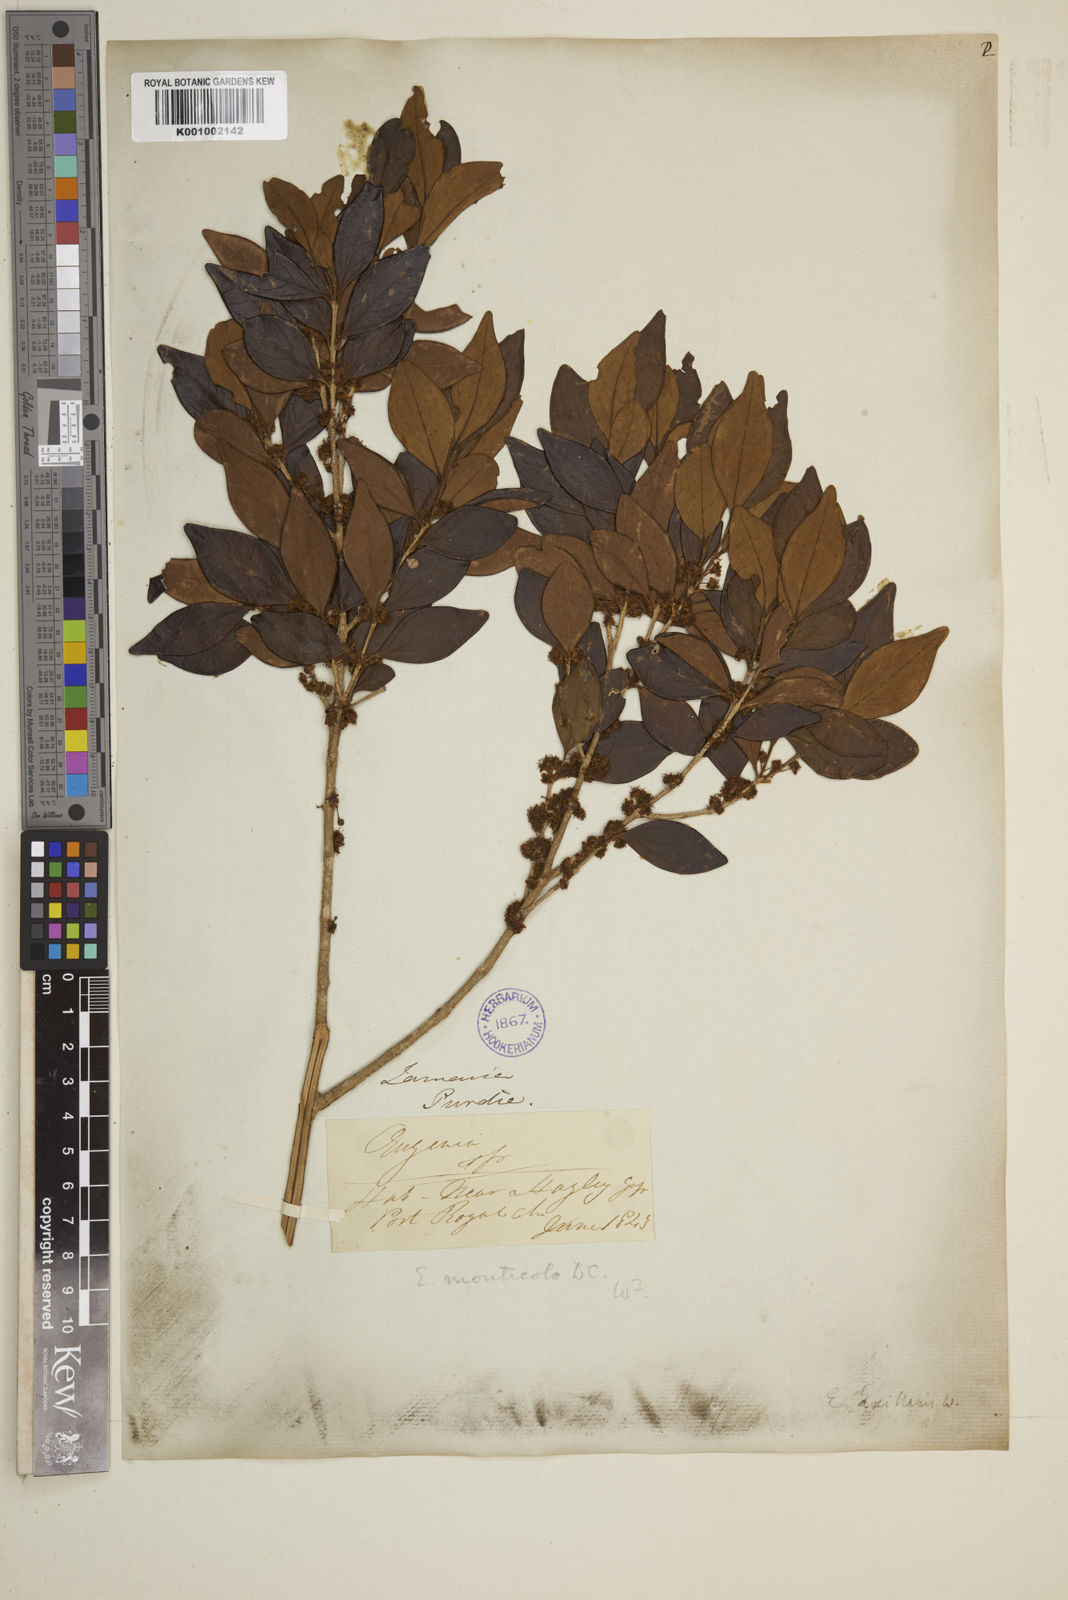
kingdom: Plantae
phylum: Tracheophyta
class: Magnoliopsida
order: Myrtales
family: Myrtaceae
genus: Eugenia
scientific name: Eugenia monticola
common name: Birds berry
